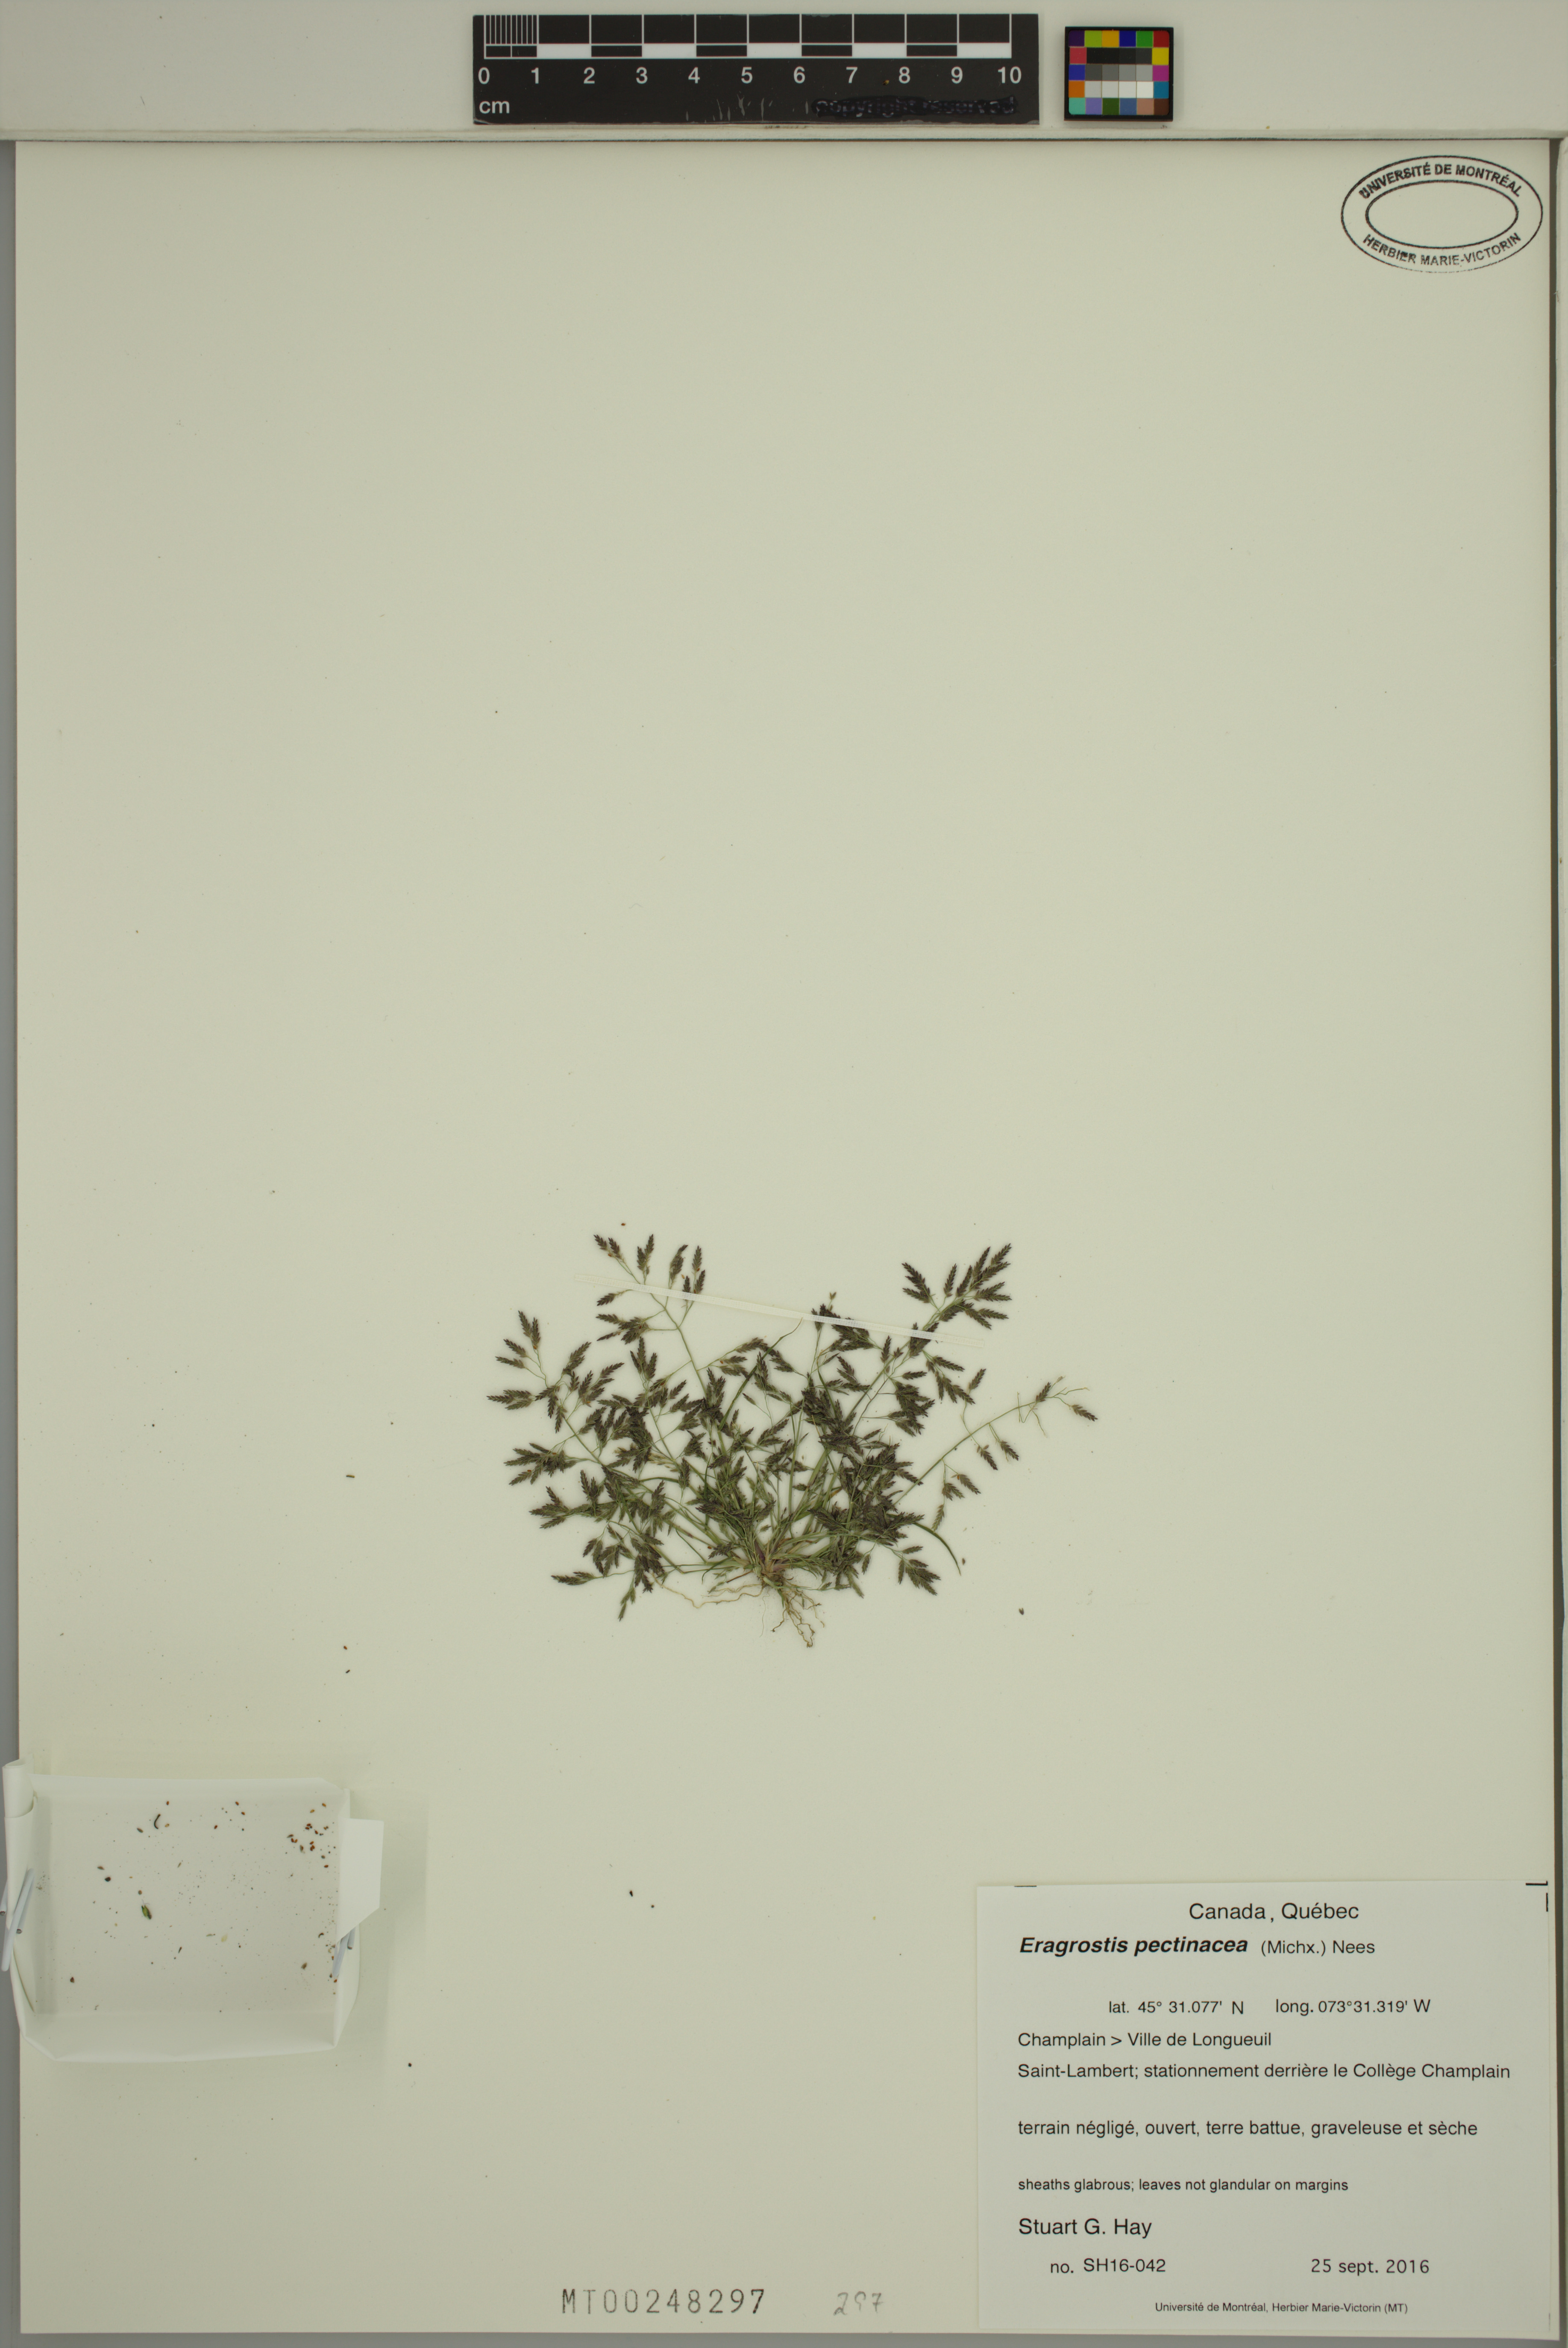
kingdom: Plantae
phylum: Tracheophyta
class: Liliopsida
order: Poales
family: Poaceae
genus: Eragrostis
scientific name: Eragrostis pectinacea
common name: Tufted lovegrass
